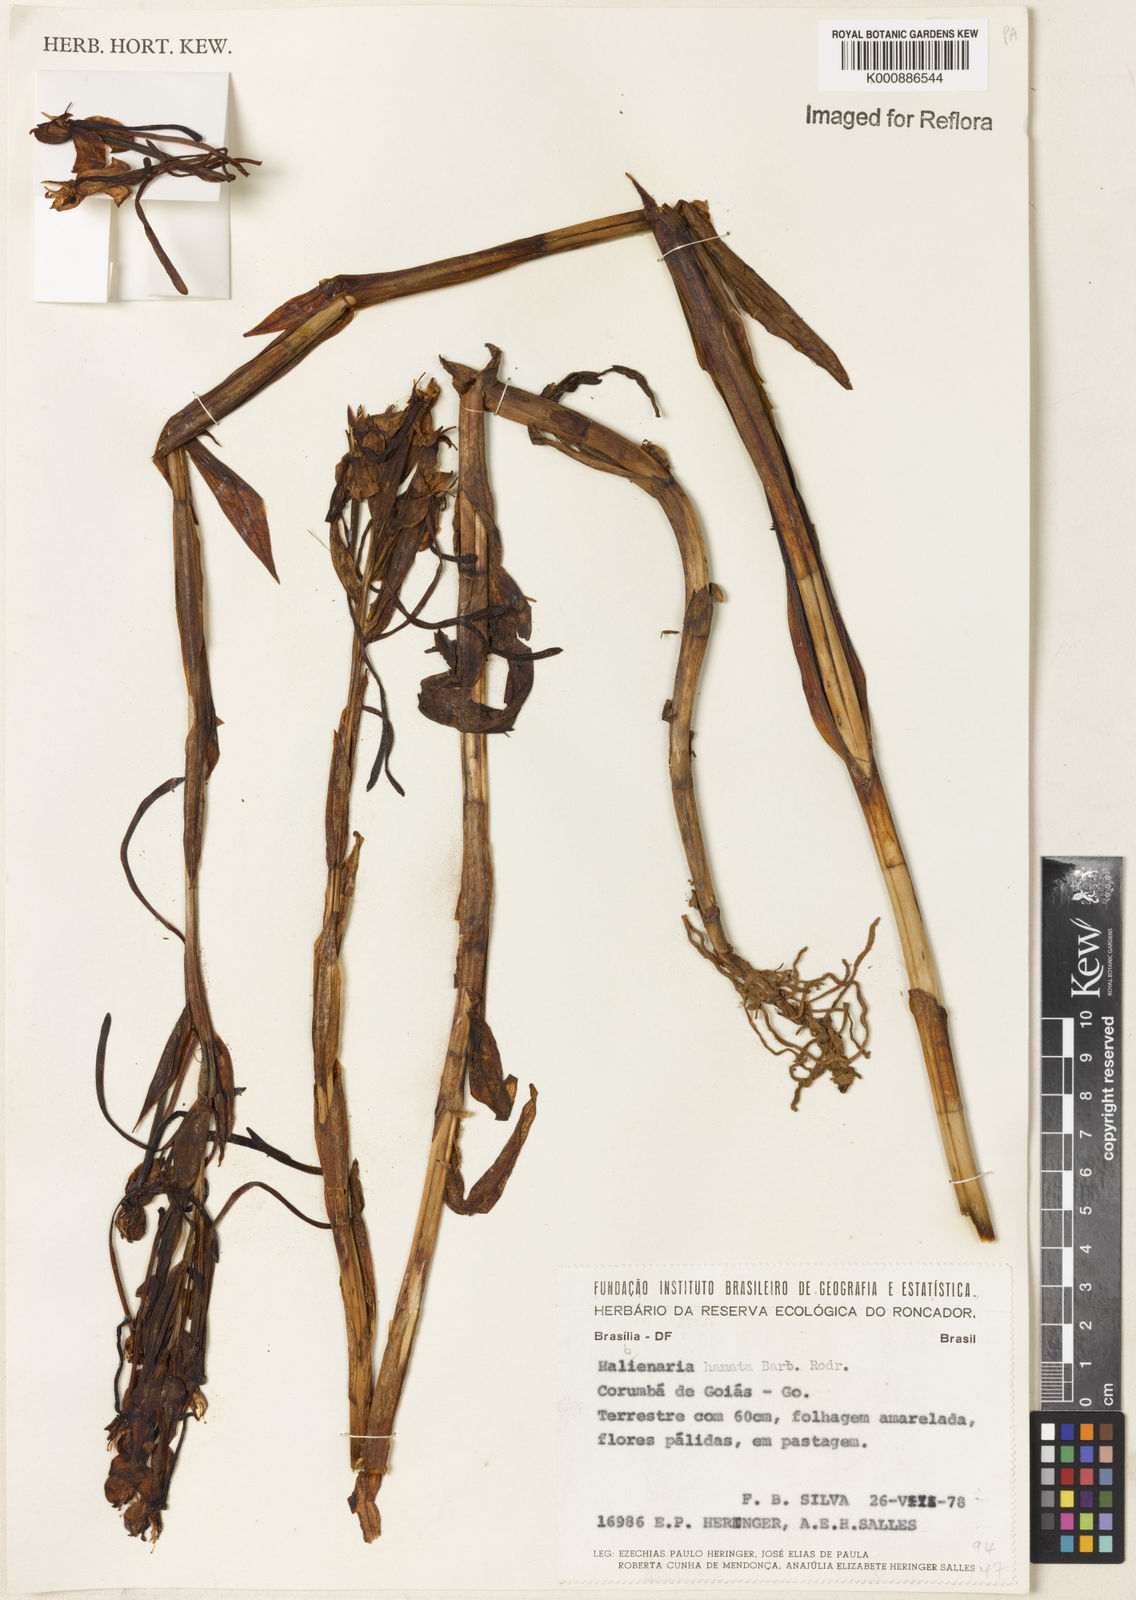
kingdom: Plantae
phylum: Tracheophyta
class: Liliopsida
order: Asparagales
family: Orchidaceae
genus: Habenaria
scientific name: Habenaria hamata
